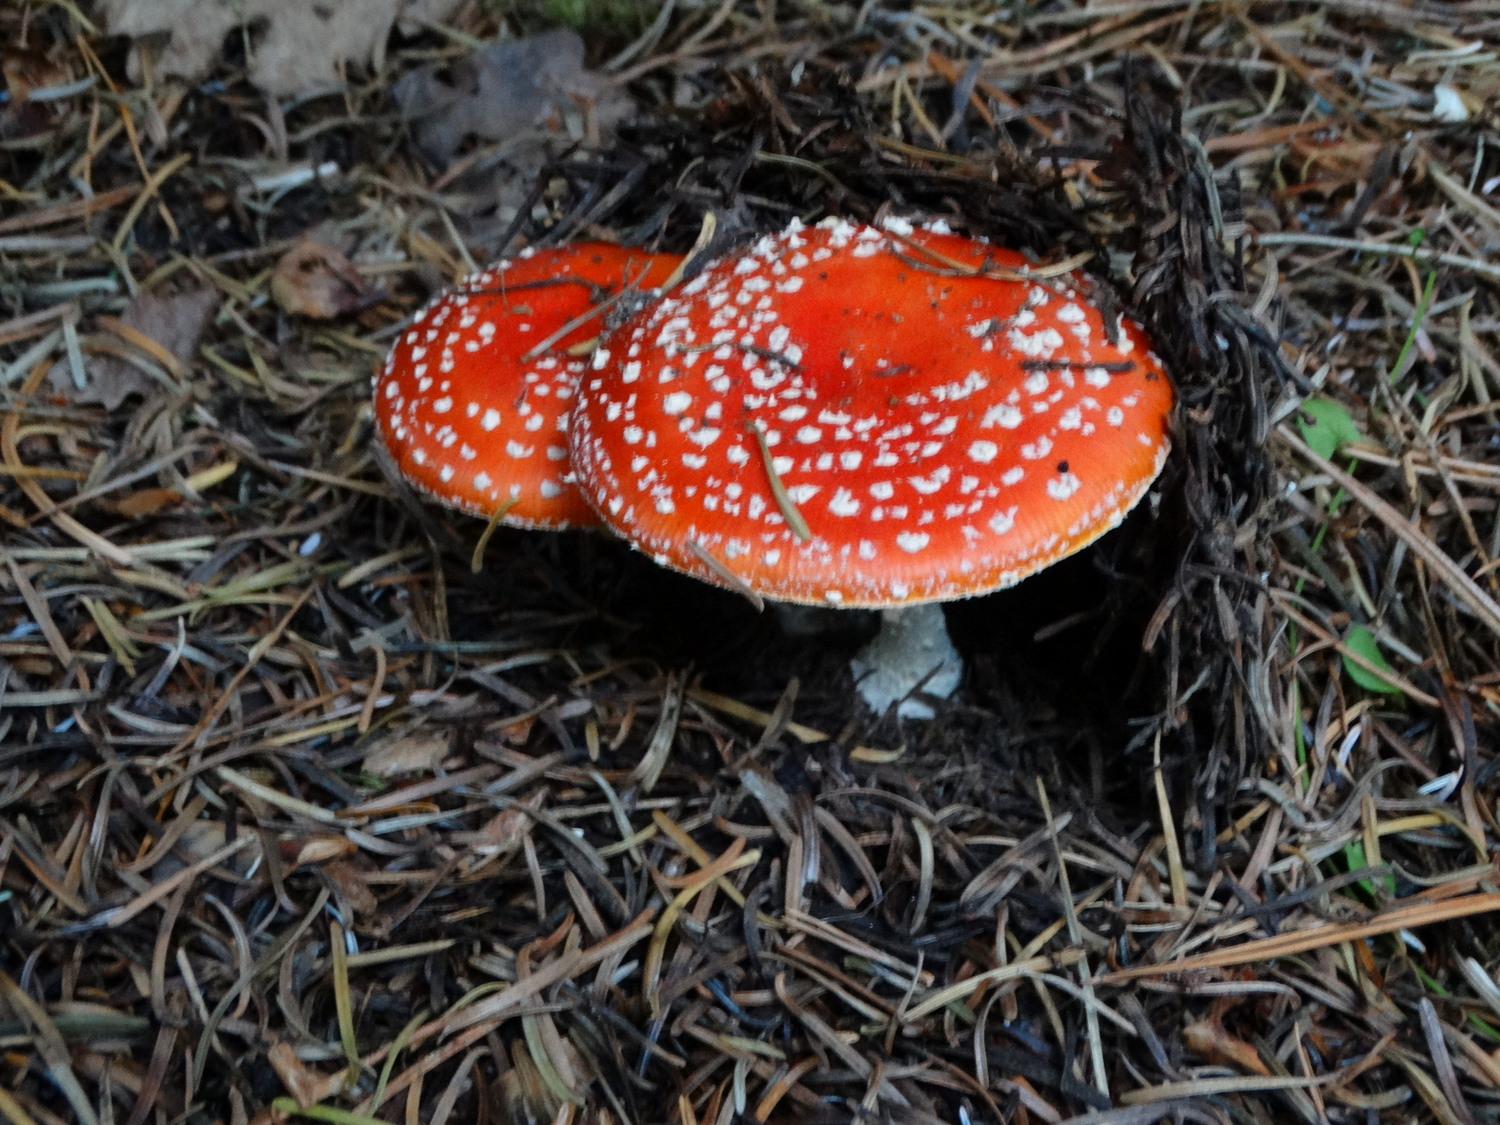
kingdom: Fungi
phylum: Basidiomycota
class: Agaricomycetes
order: Agaricales
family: Amanitaceae
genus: Amanita
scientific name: Amanita muscaria
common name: rød fluesvamp
